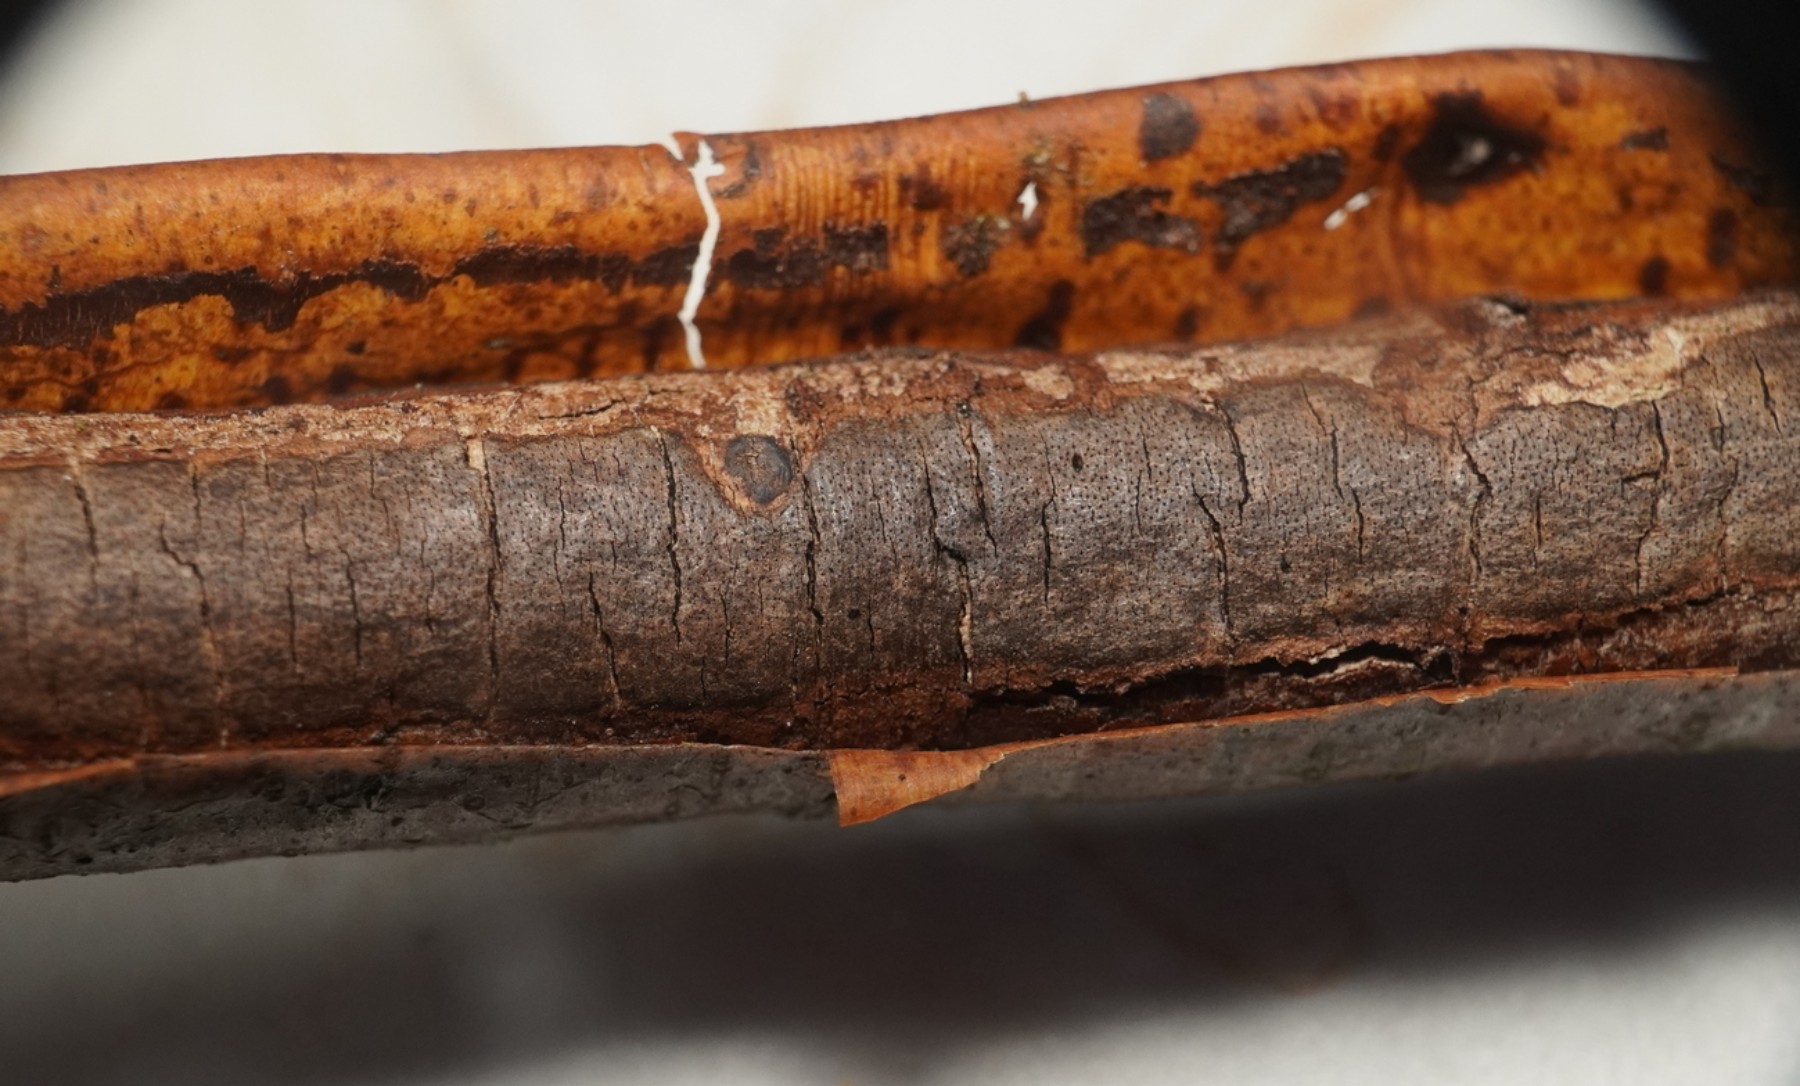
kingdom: Fungi
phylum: Ascomycota
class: Sordariomycetes
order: Xylariales
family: Diatrypaceae
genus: Diatrype
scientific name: Diatrype decorticata
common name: barksprænger-kulskorpe
